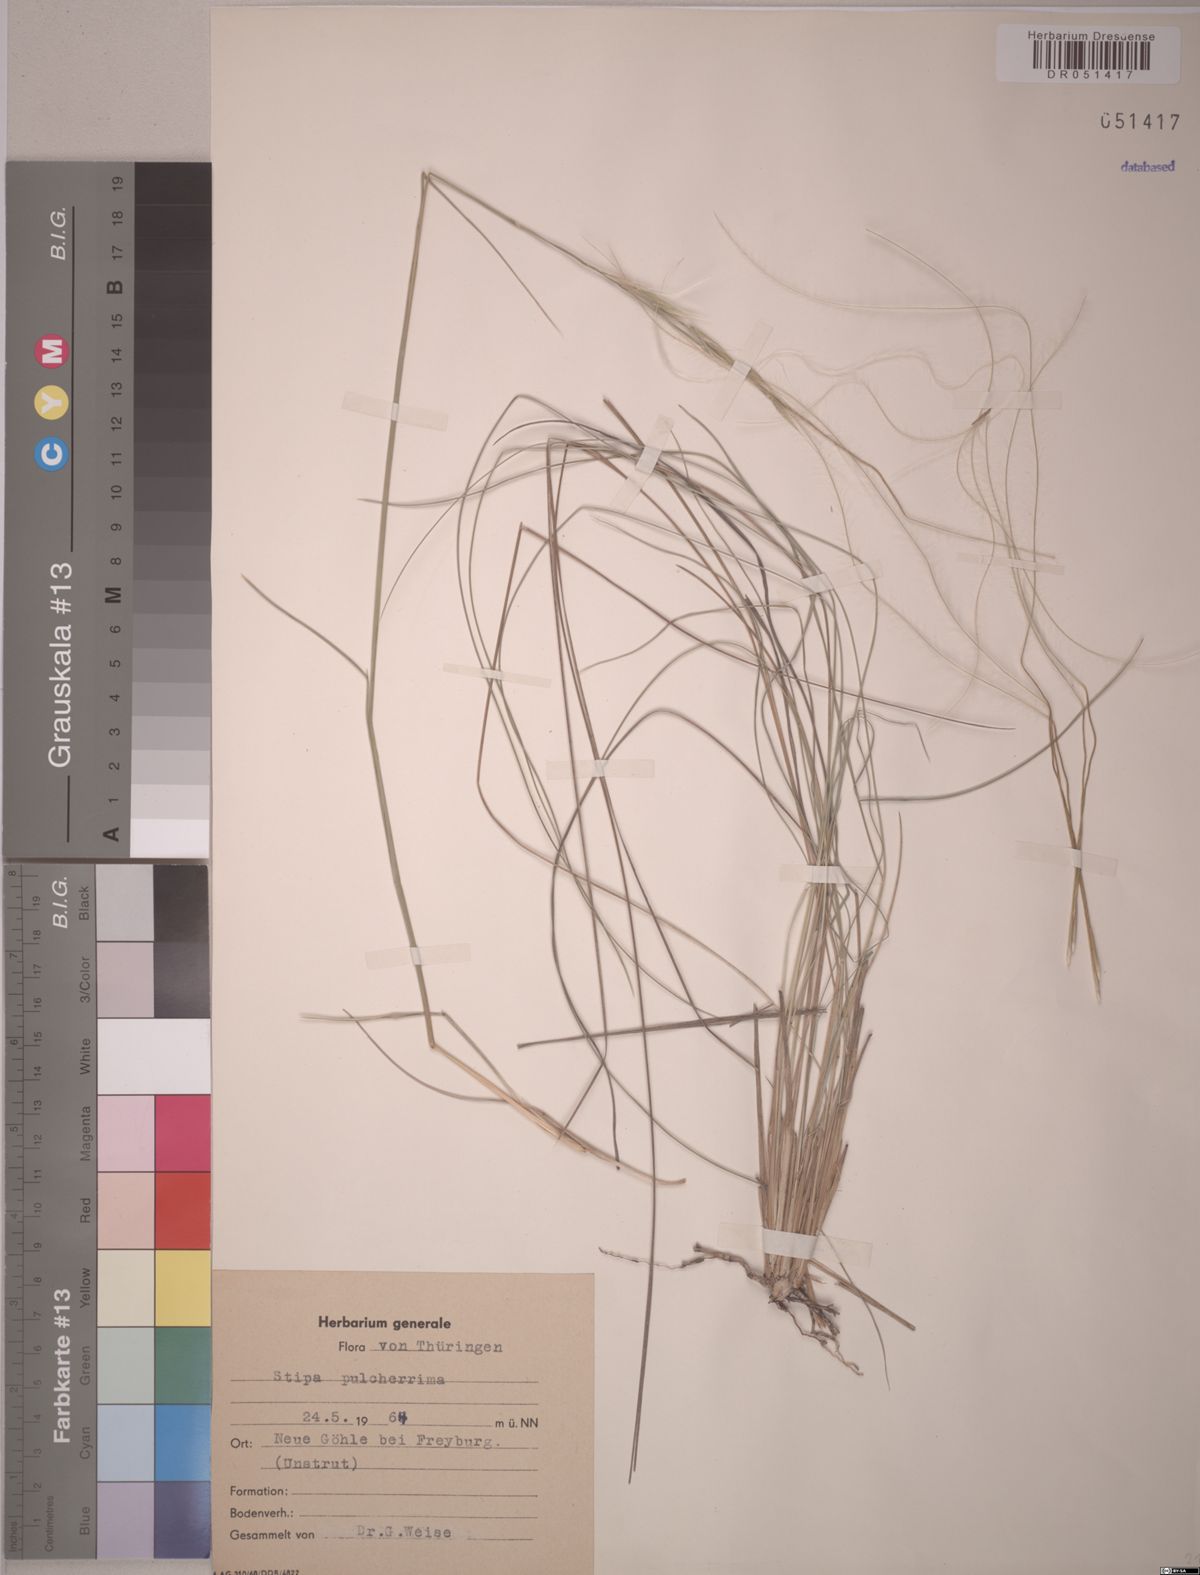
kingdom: Plantae
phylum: Tracheophyta
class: Liliopsida
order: Poales
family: Poaceae
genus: Stipa
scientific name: Stipa pulcherrima
